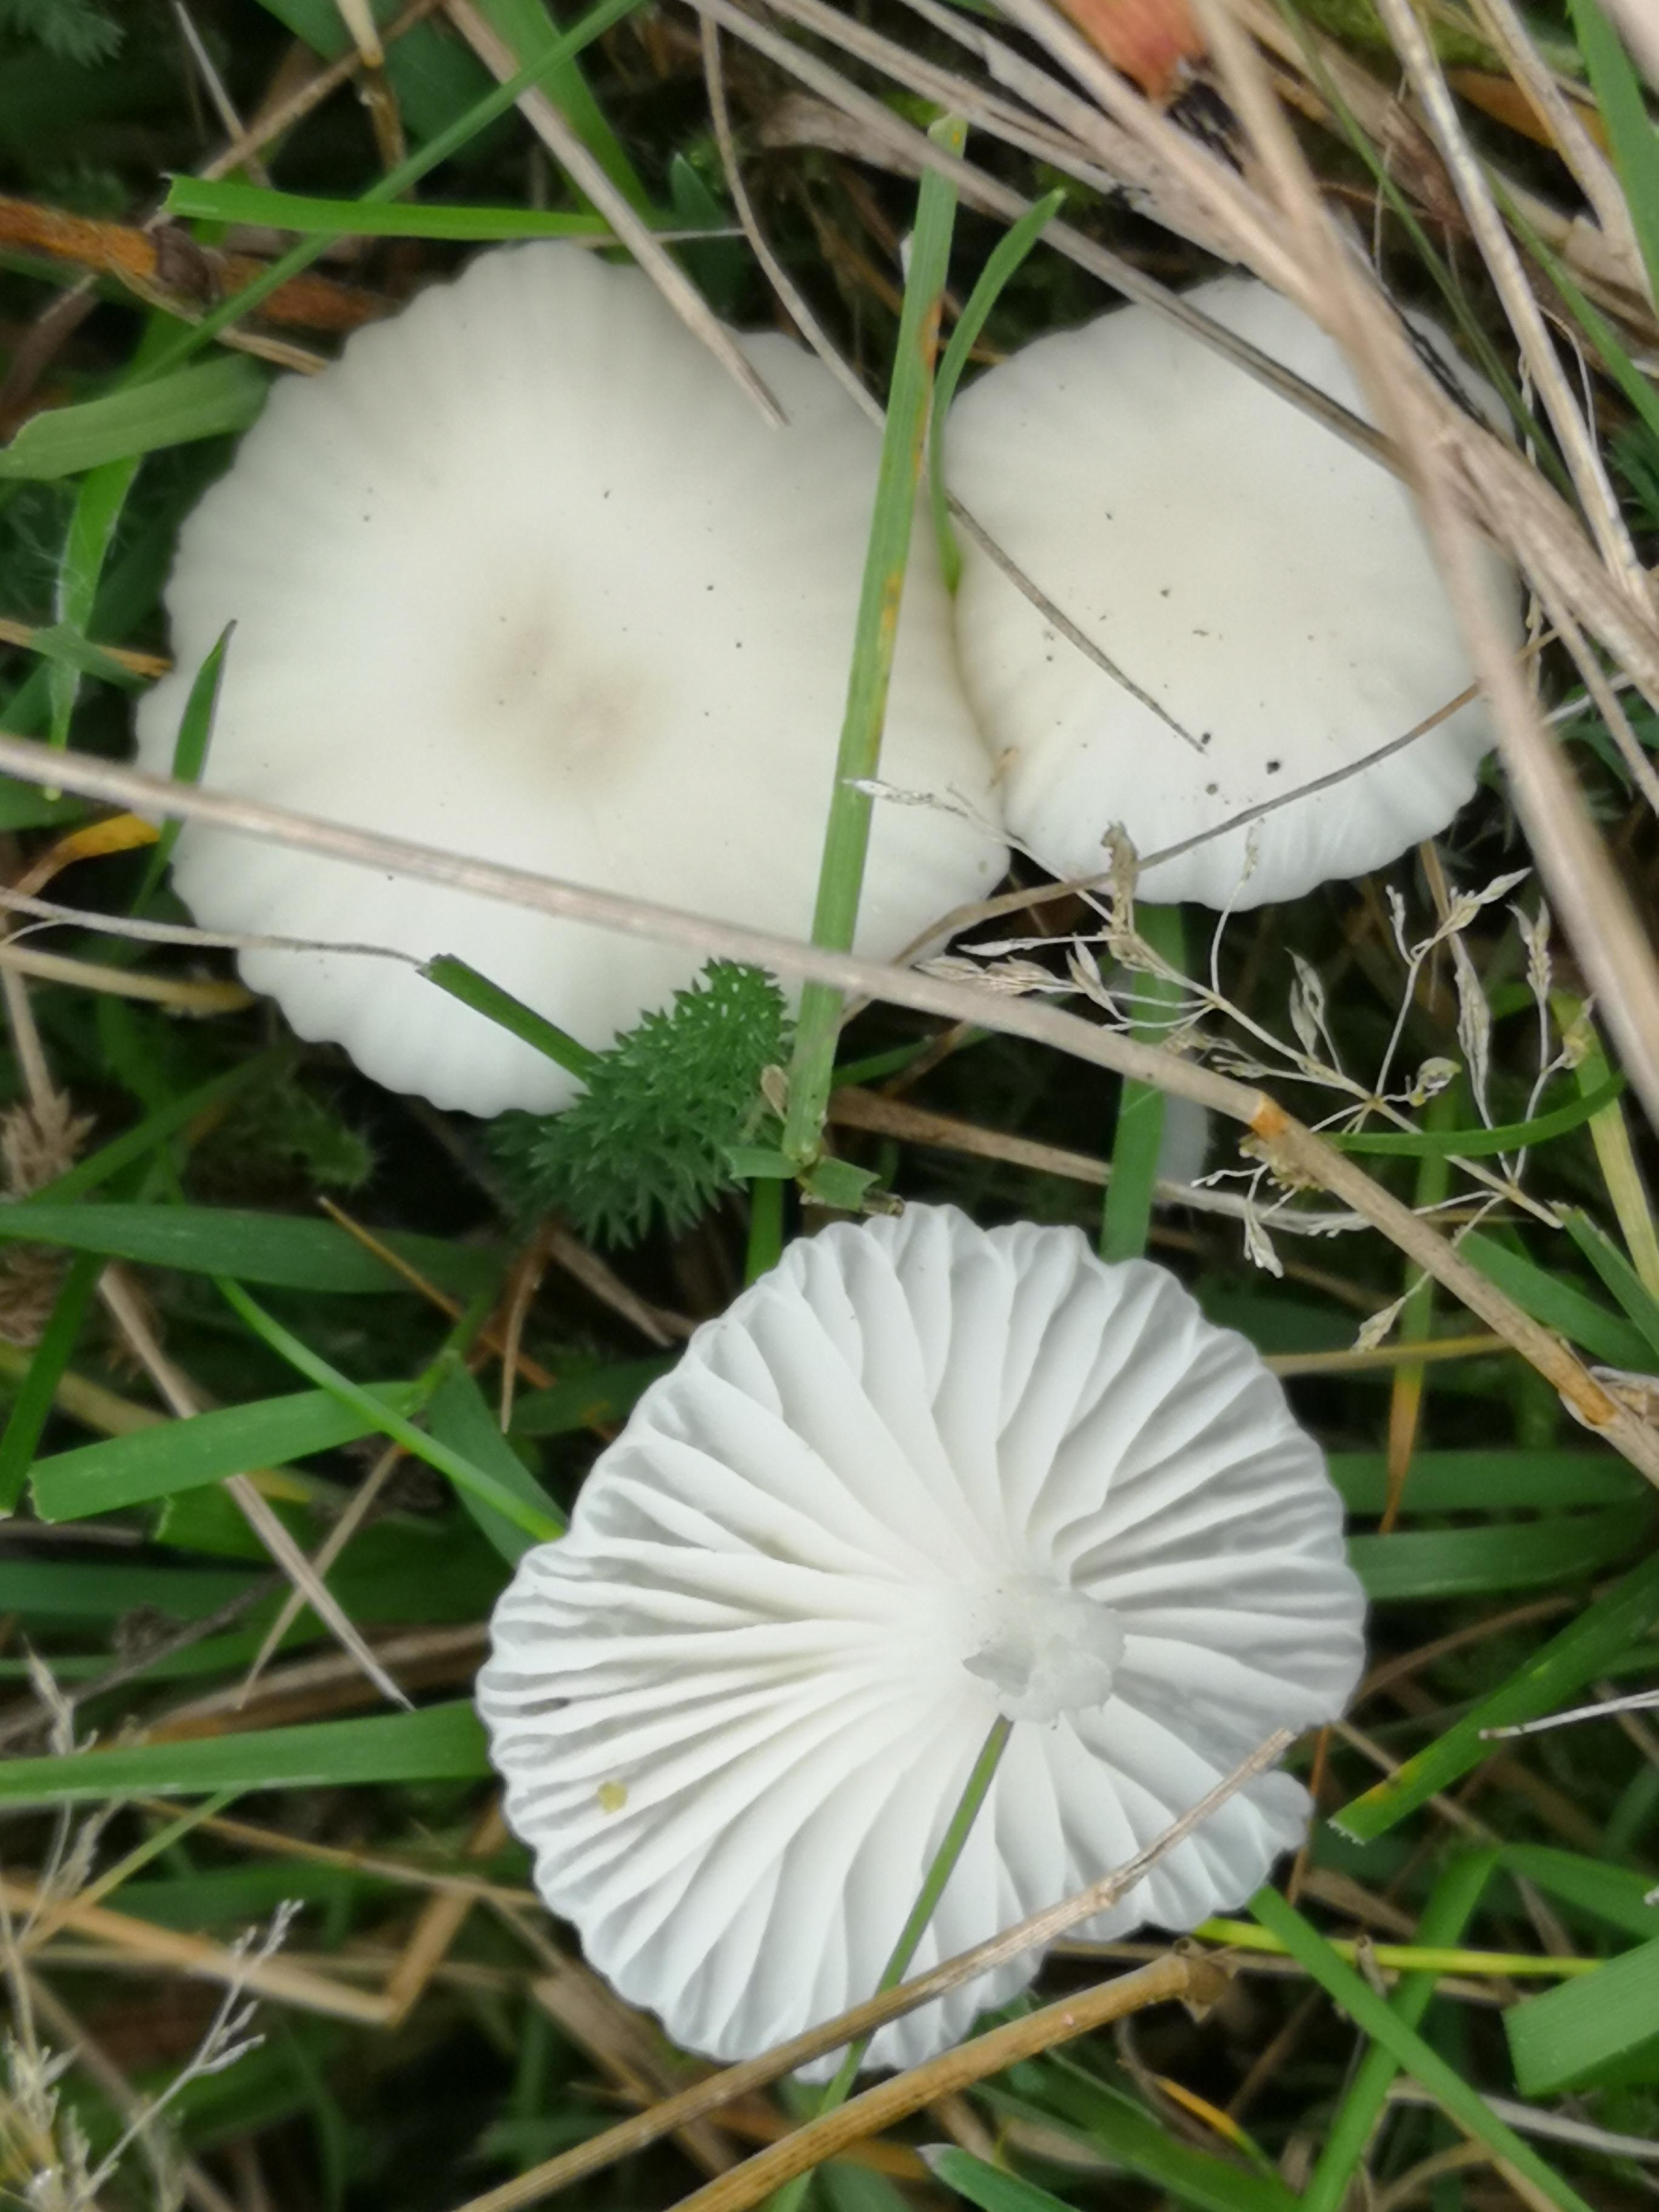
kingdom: Fungi
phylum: Basidiomycota
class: Agaricomycetes
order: Agaricales
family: Hygrophoraceae
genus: Cuphophyllus
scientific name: Cuphophyllus
